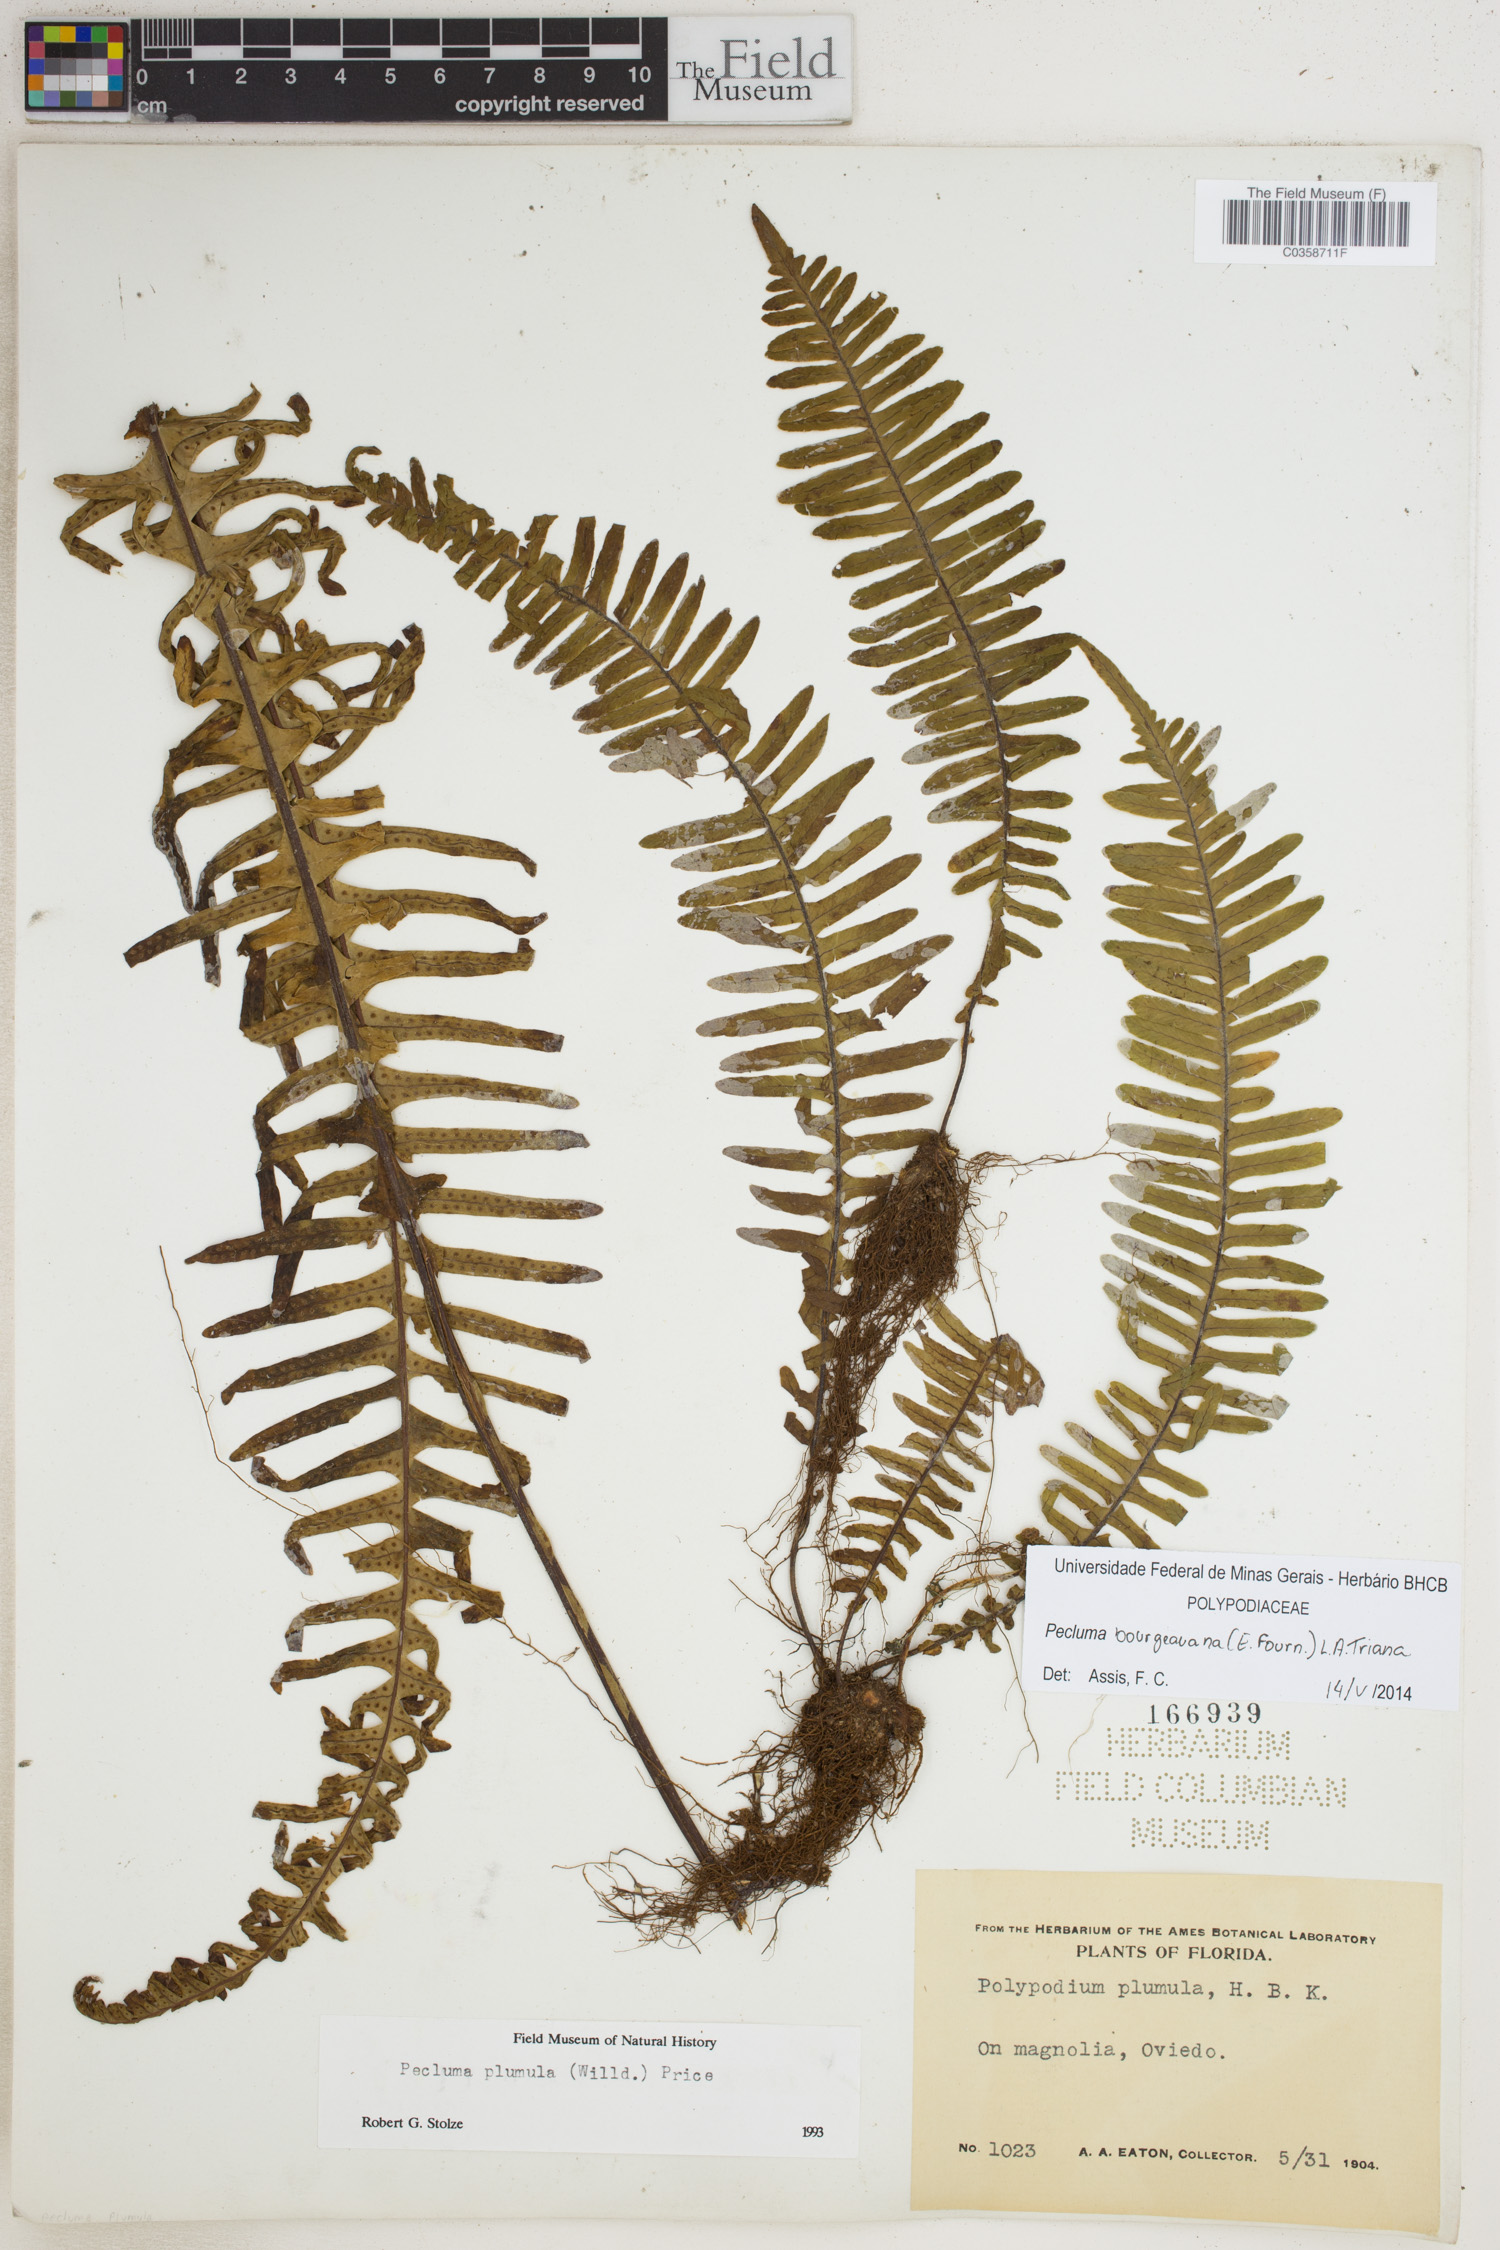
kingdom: Plantae
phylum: Tracheophyta
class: Polypodiopsida
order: Polypodiales
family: Polypodiaceae
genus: Pecluma
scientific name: Pecluma bourgeauana
